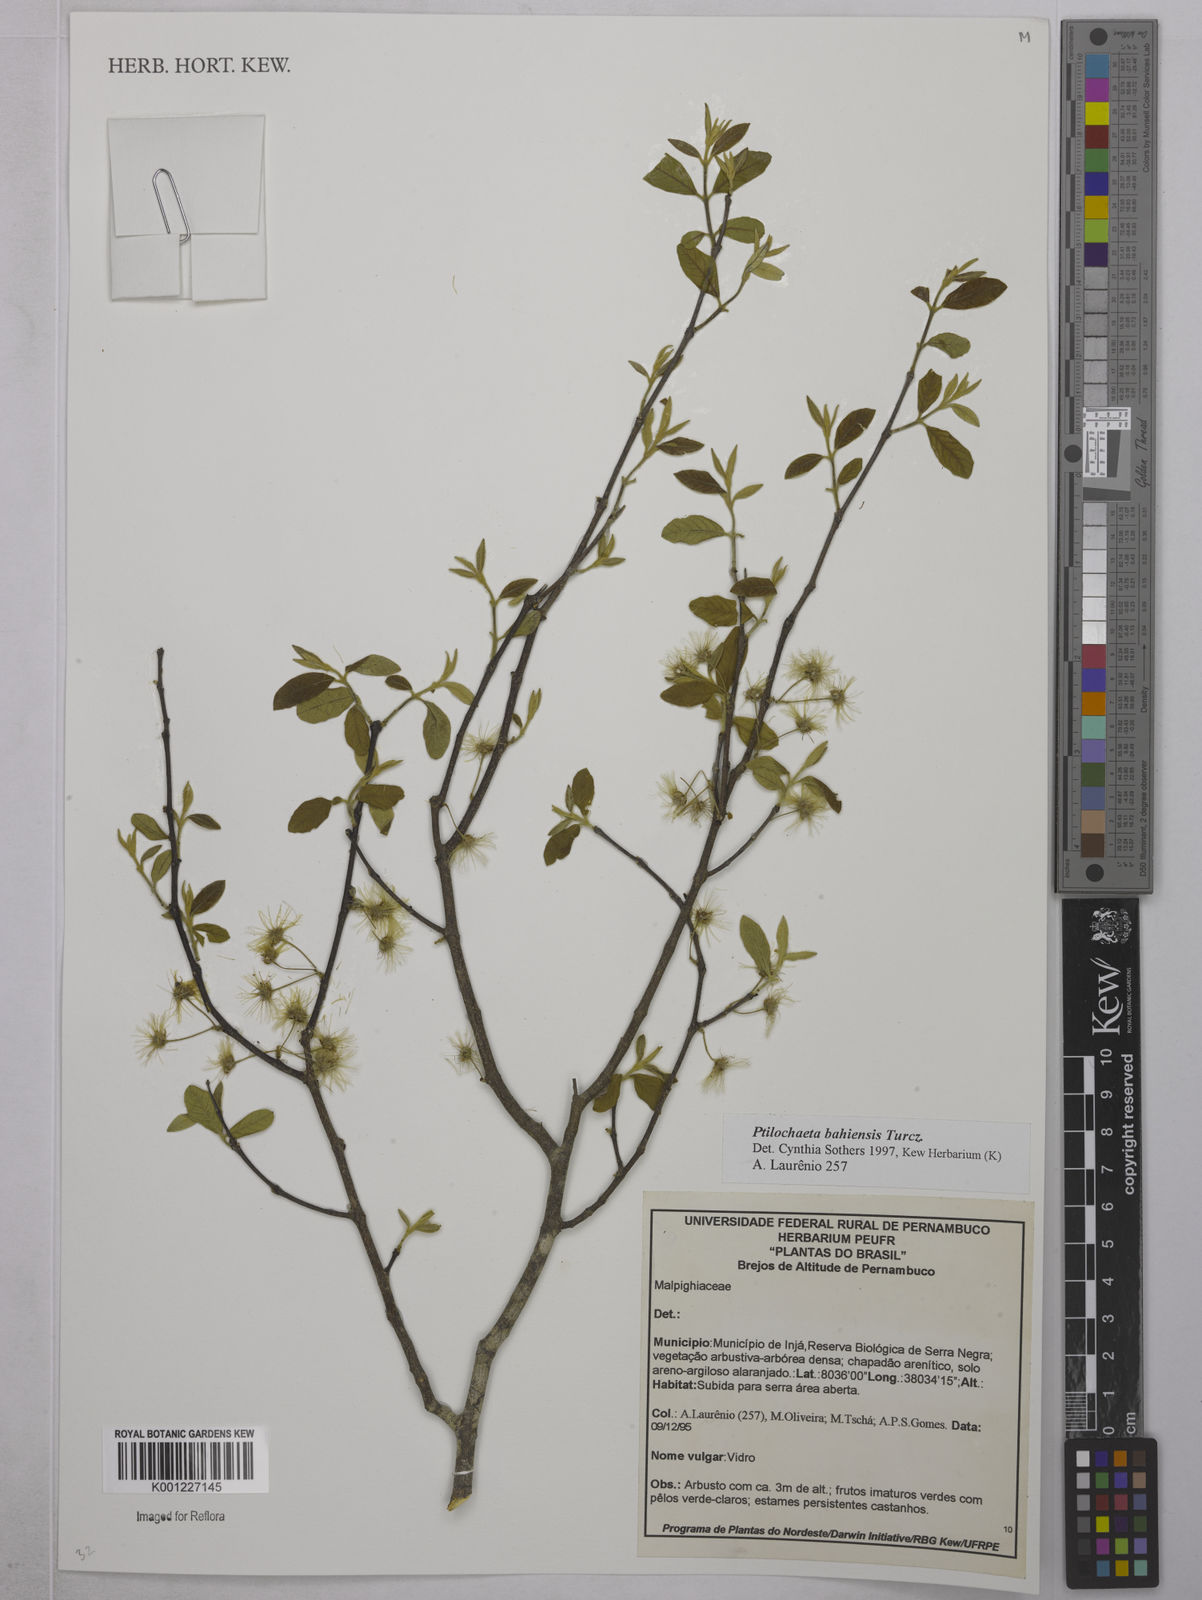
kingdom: Plantae
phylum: Tracheophyta
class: Magnoliopsida
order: Malpighiales
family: Malpighiaceae
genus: Ptilochaeta
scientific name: Ptilochaeta bahiensis
